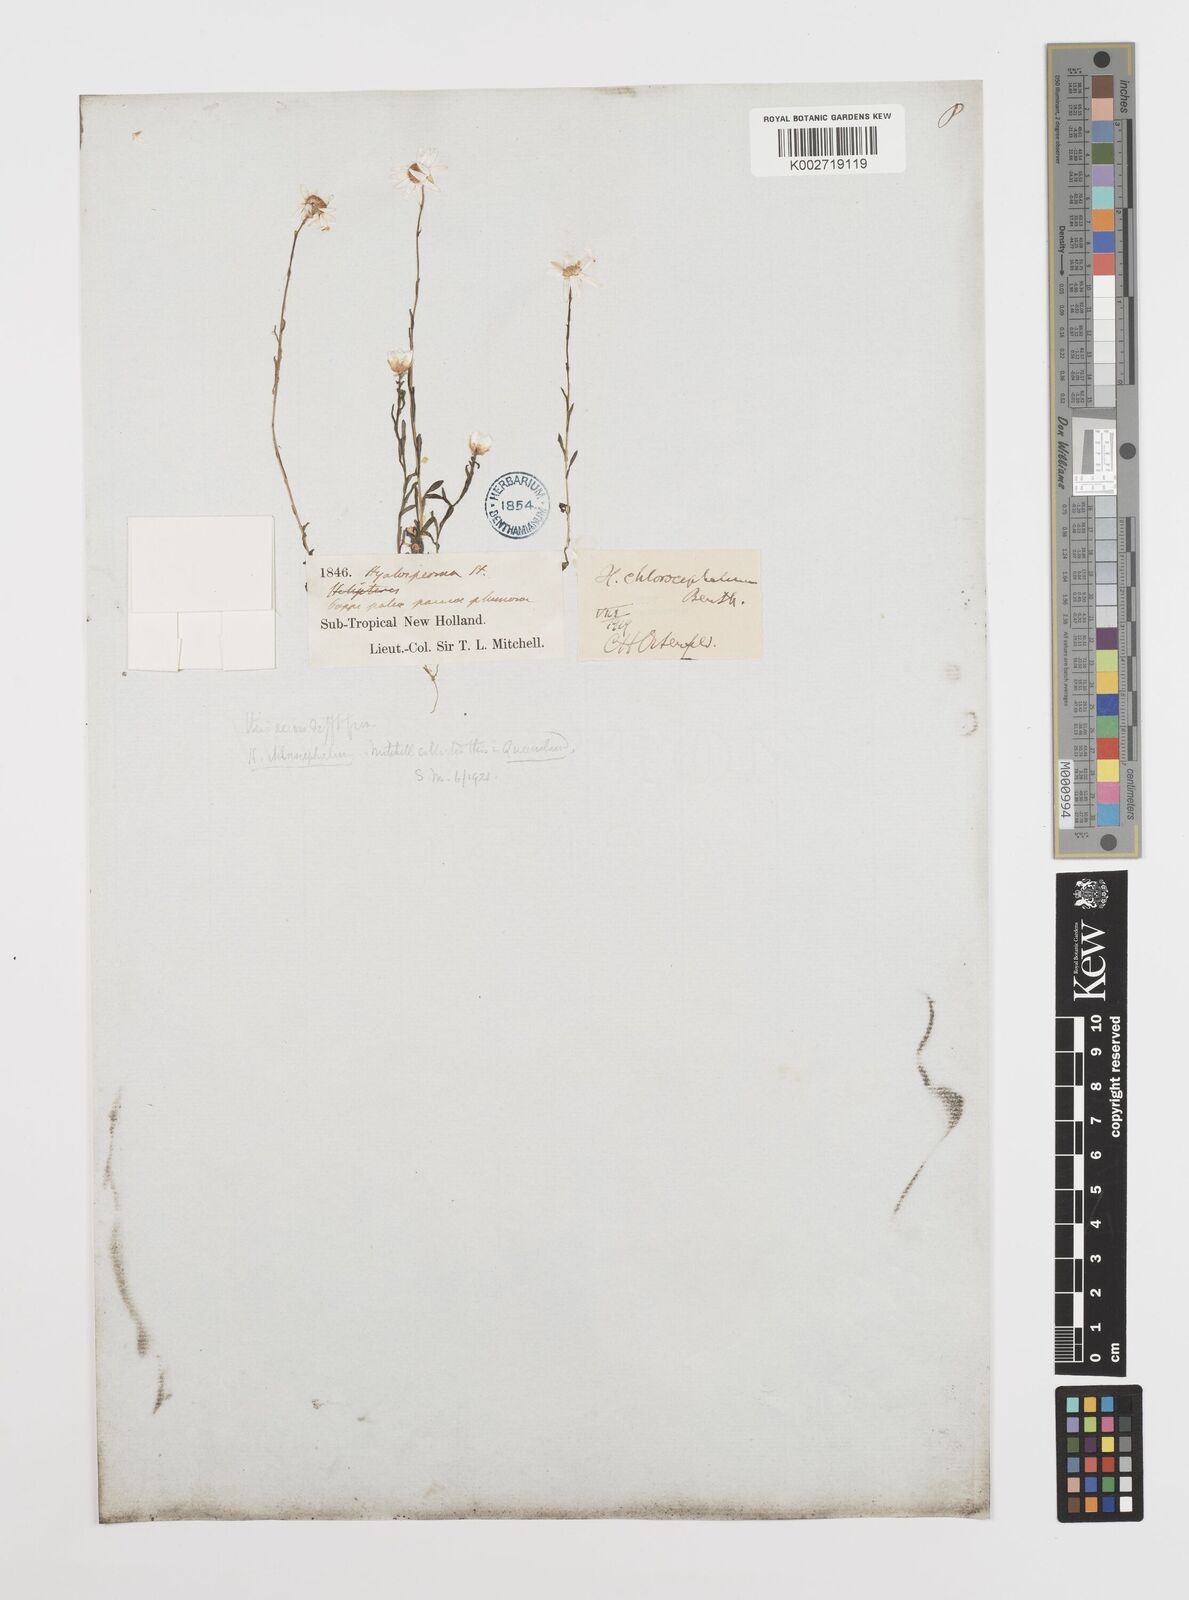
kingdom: Plantae
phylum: Tracheophyta
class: Magnoliopsida
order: Asterales
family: Asteraceae
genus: Rhodanthe
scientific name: Rhodanthe diffusa
